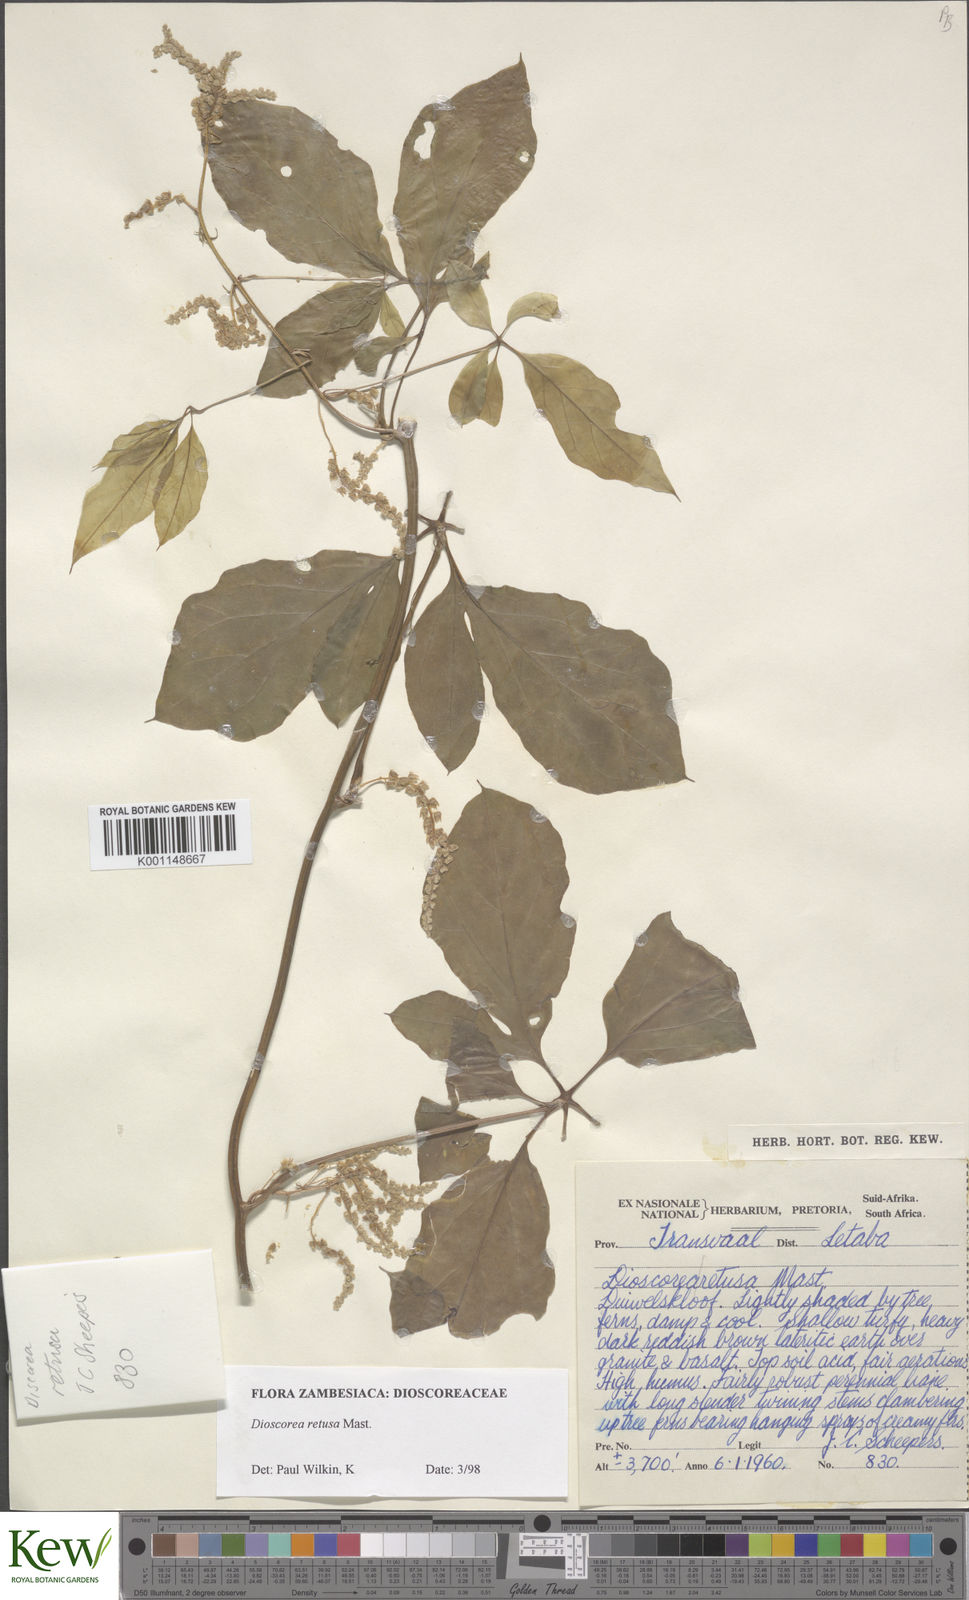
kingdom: Plantae
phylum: Tracheophyta
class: Liliopsida
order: Dioscoreales
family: Dioscoreaceae
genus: Dioscorea
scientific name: Dioscorea retusa
